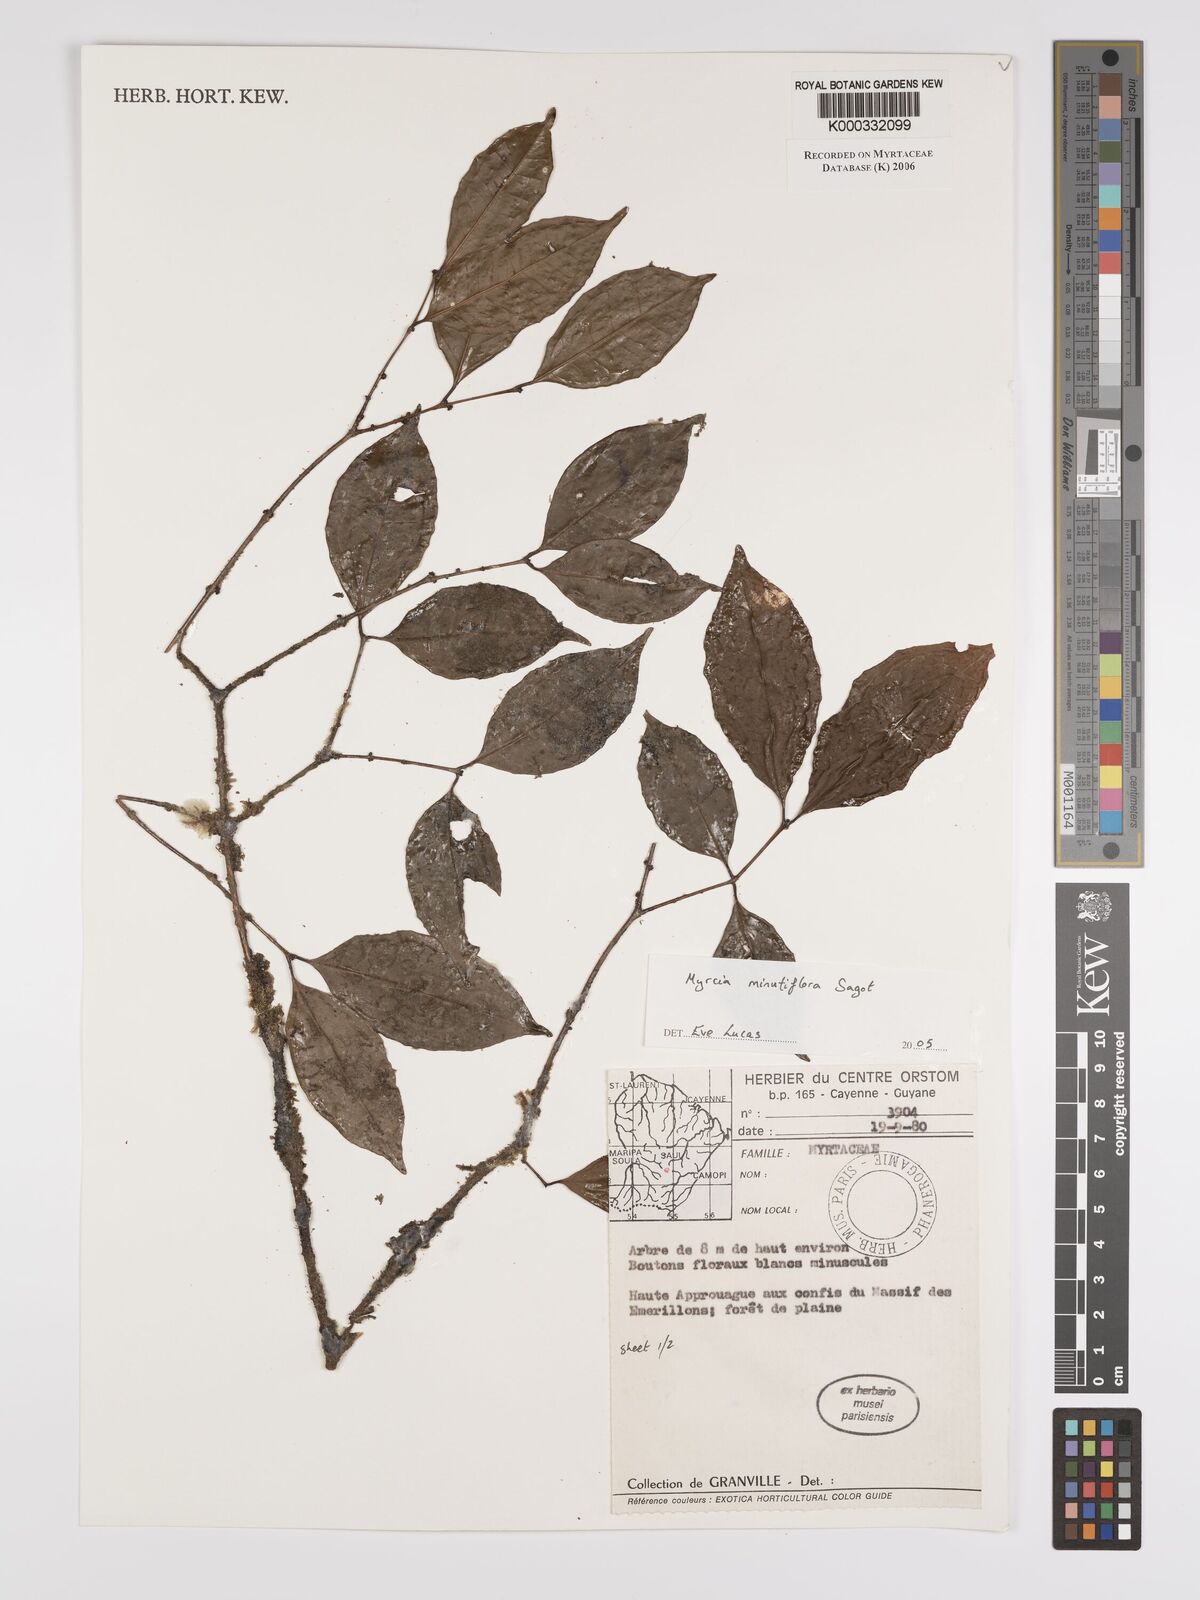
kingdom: Plantae
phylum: Tracheophyta
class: Magnoliopsida
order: Myrtales
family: Myrtaceae
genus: Myrcia
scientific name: Myrcia minutiflora
